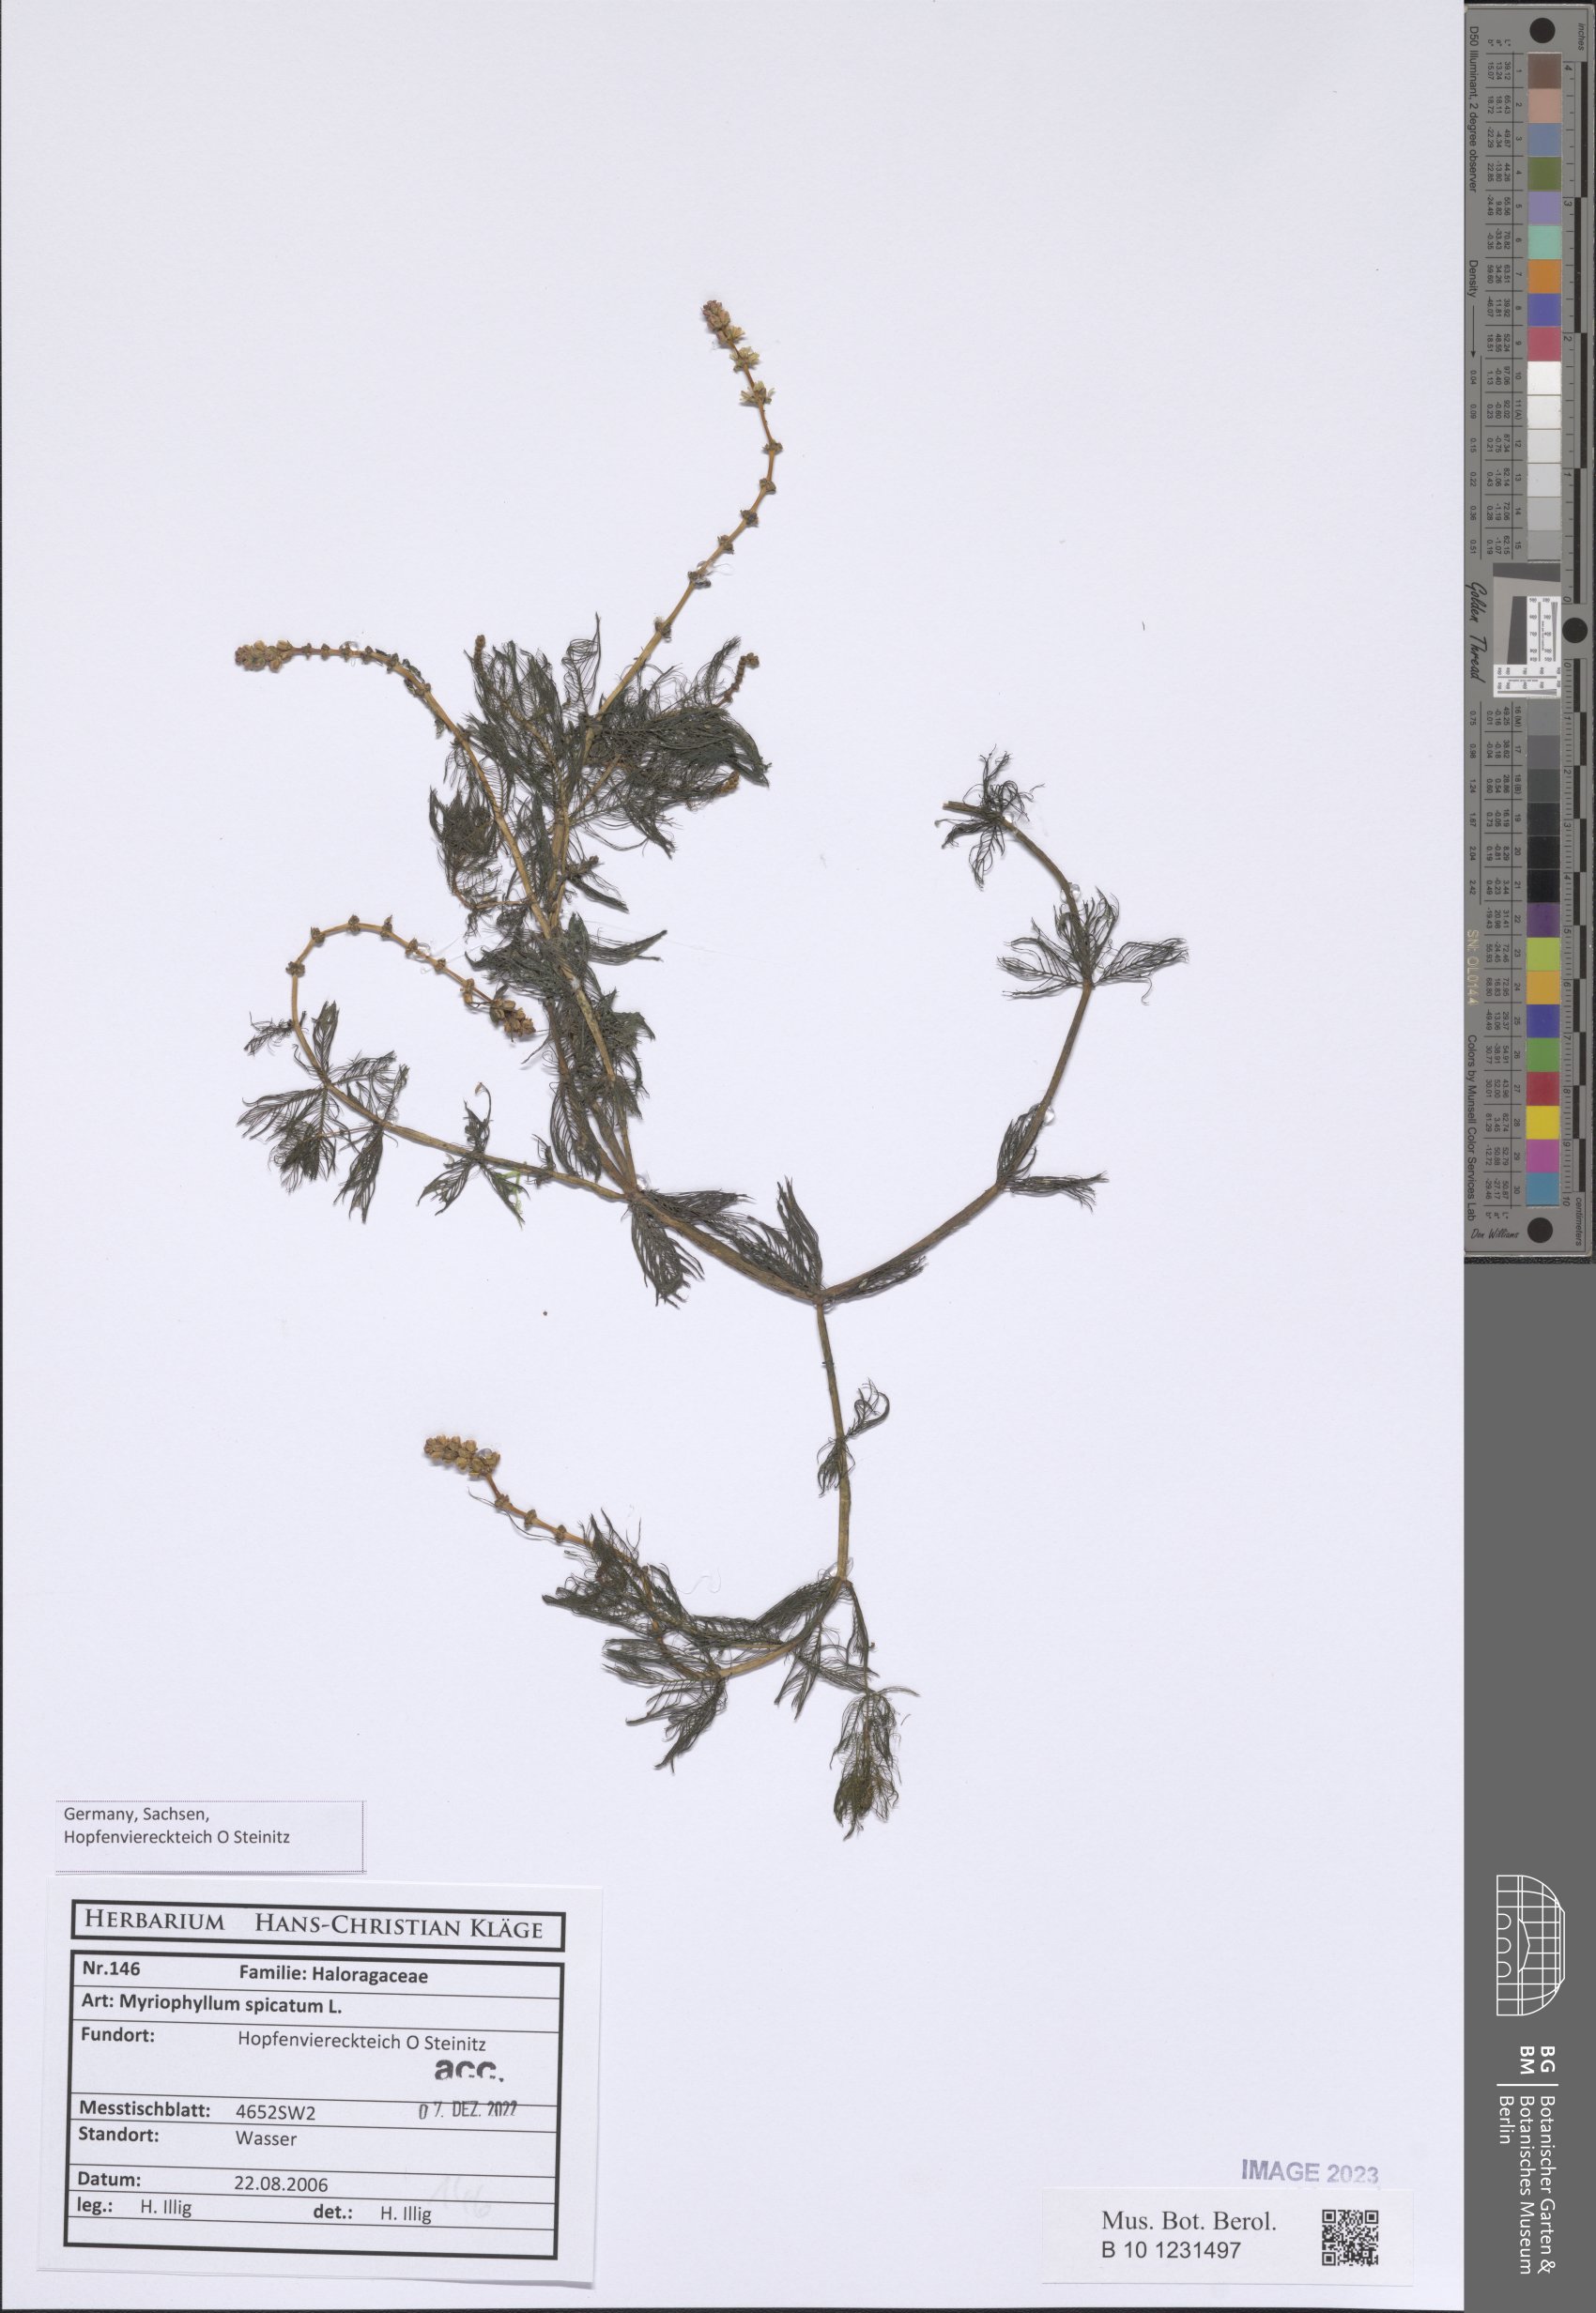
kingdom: Plantae
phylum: Tracheophyta
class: Magnoliopsida
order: Saxifragales
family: Haloragaceae
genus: Myriophyllum
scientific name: Myriophyllum spicatum
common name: Spiked water-milfoil
